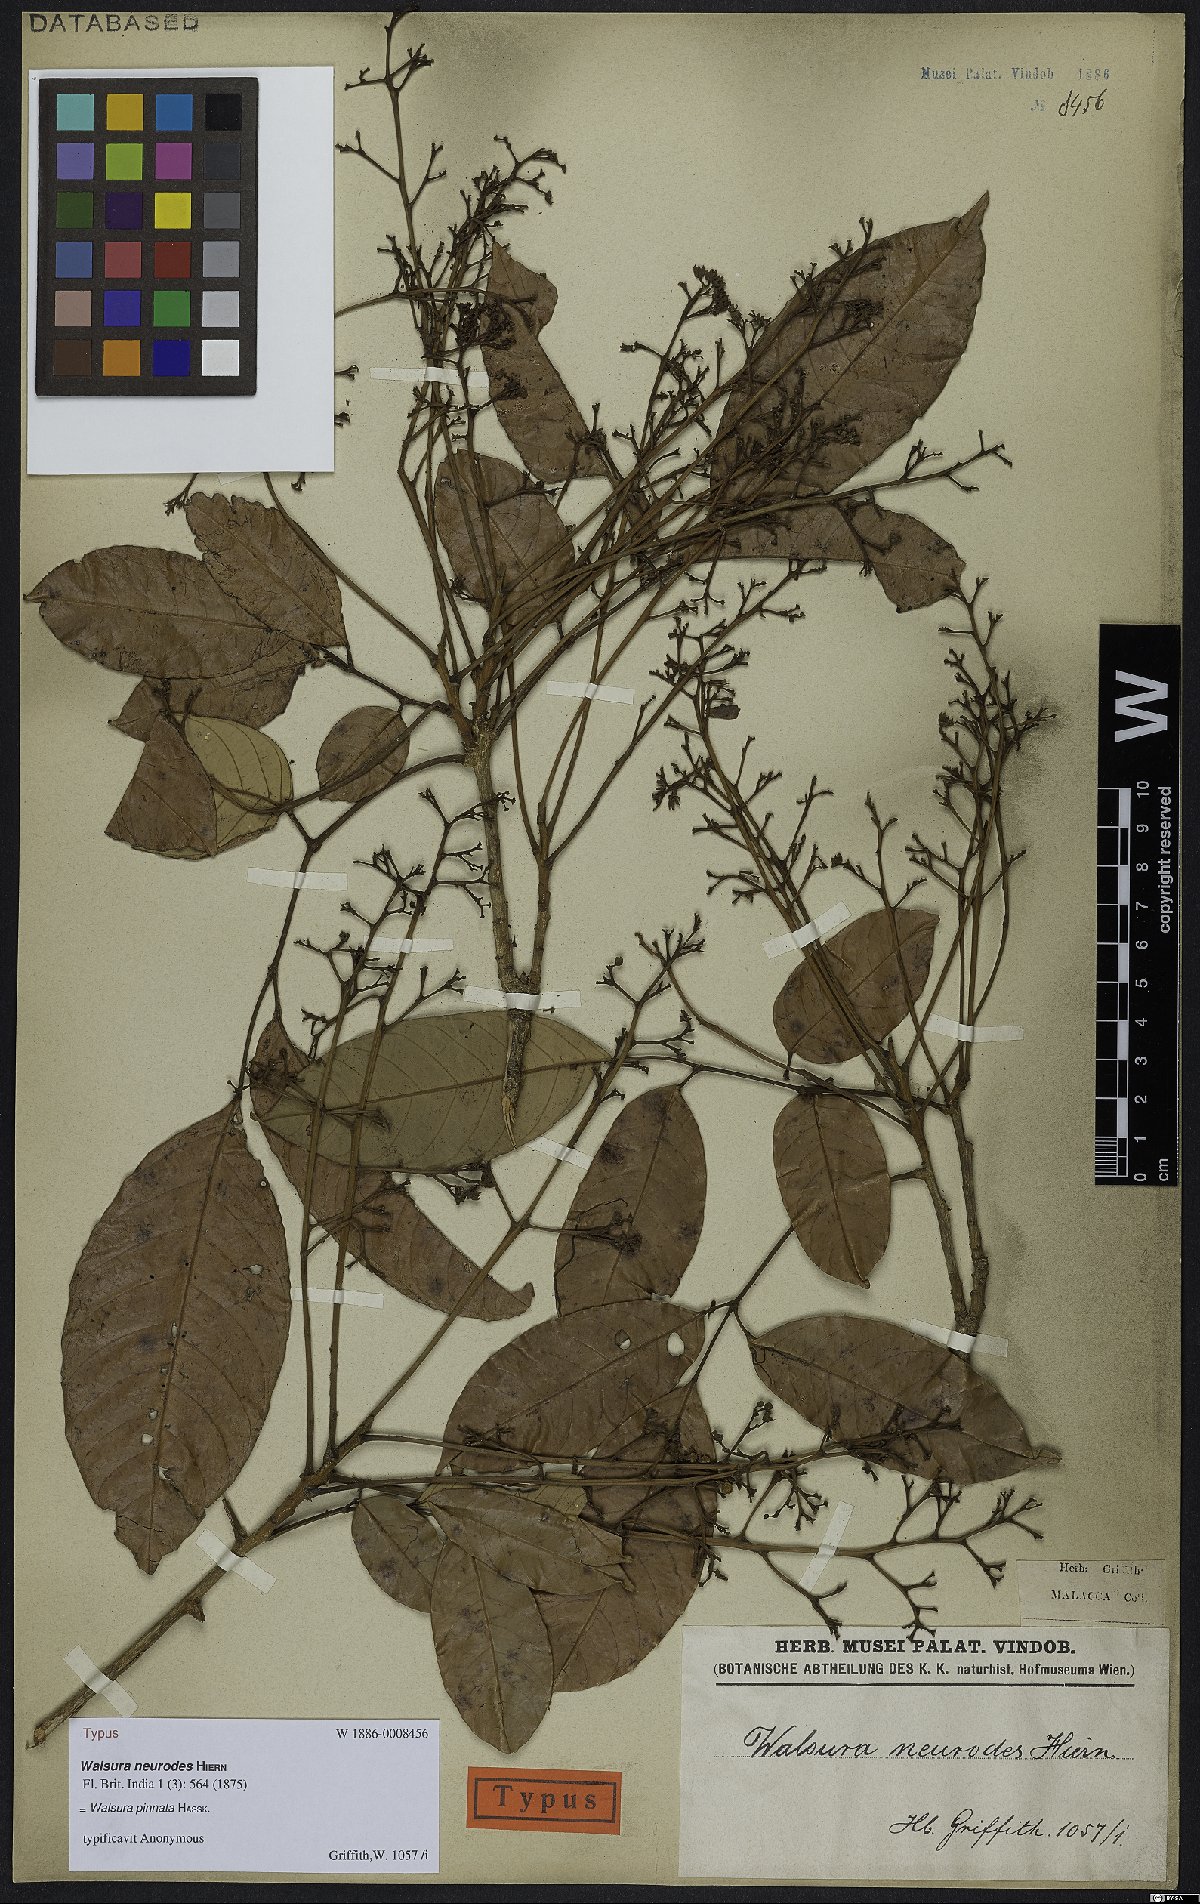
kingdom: Plantae
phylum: Tracheophyta
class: Magnoliopsida
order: Sapindales
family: Meliaceae
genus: Walsura
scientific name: Walsura pinnata
